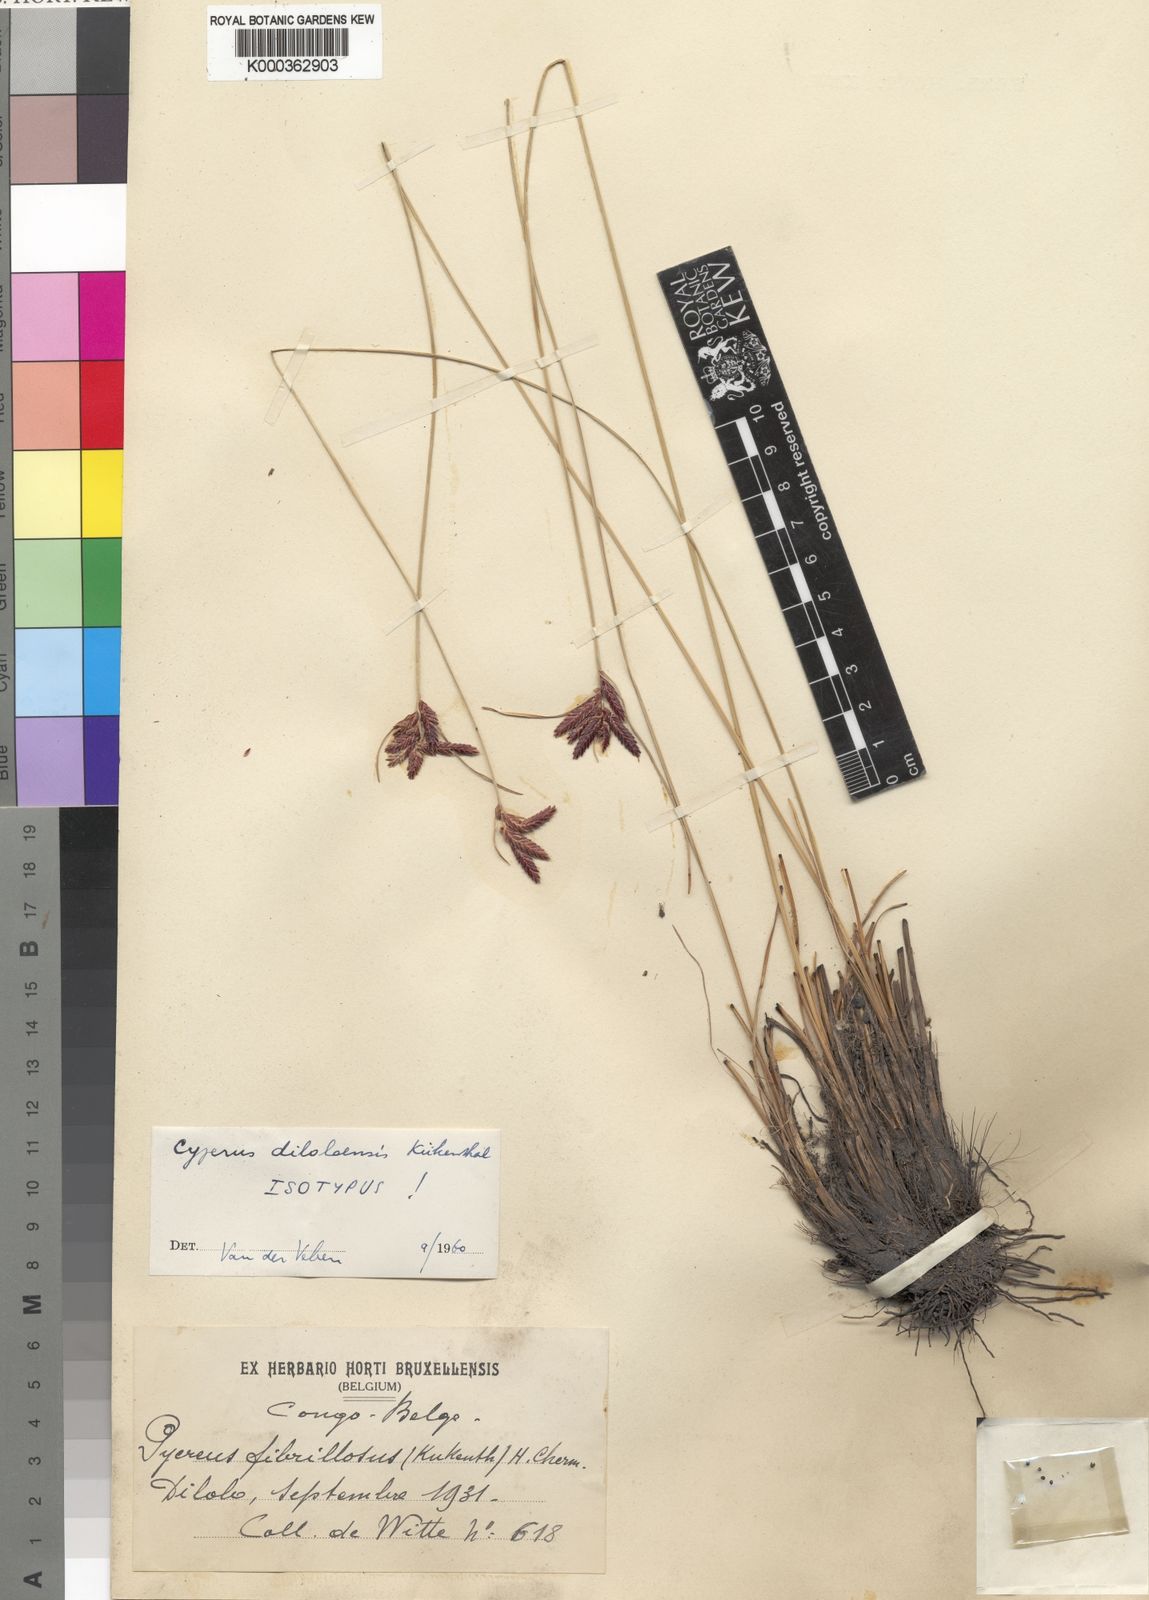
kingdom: Plantae
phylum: Tracheophyta
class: Liliopsida
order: Poales
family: Cyperaceae
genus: Cyperus
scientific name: Cyperus
